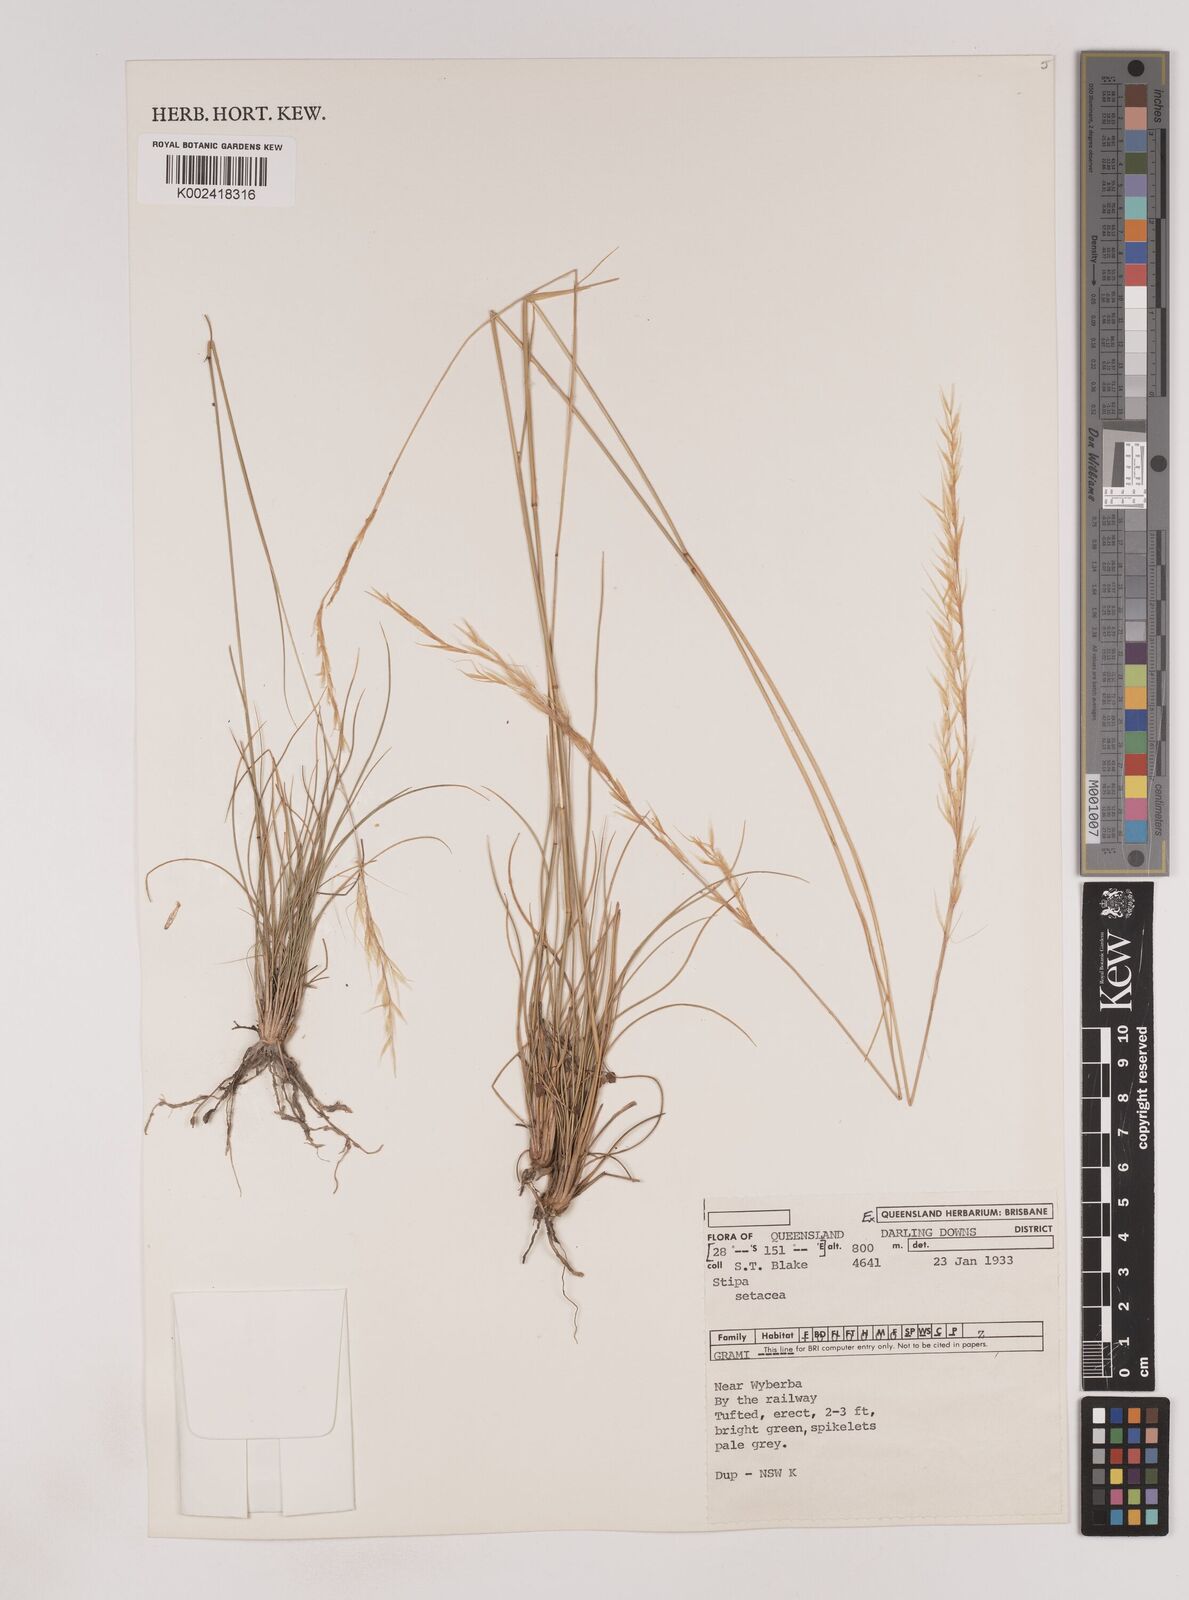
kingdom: Plantae
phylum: Tracheophyta
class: Liliopsida
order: Poales
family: Poaceae
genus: Piptochaetium
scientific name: Piptochaetium
